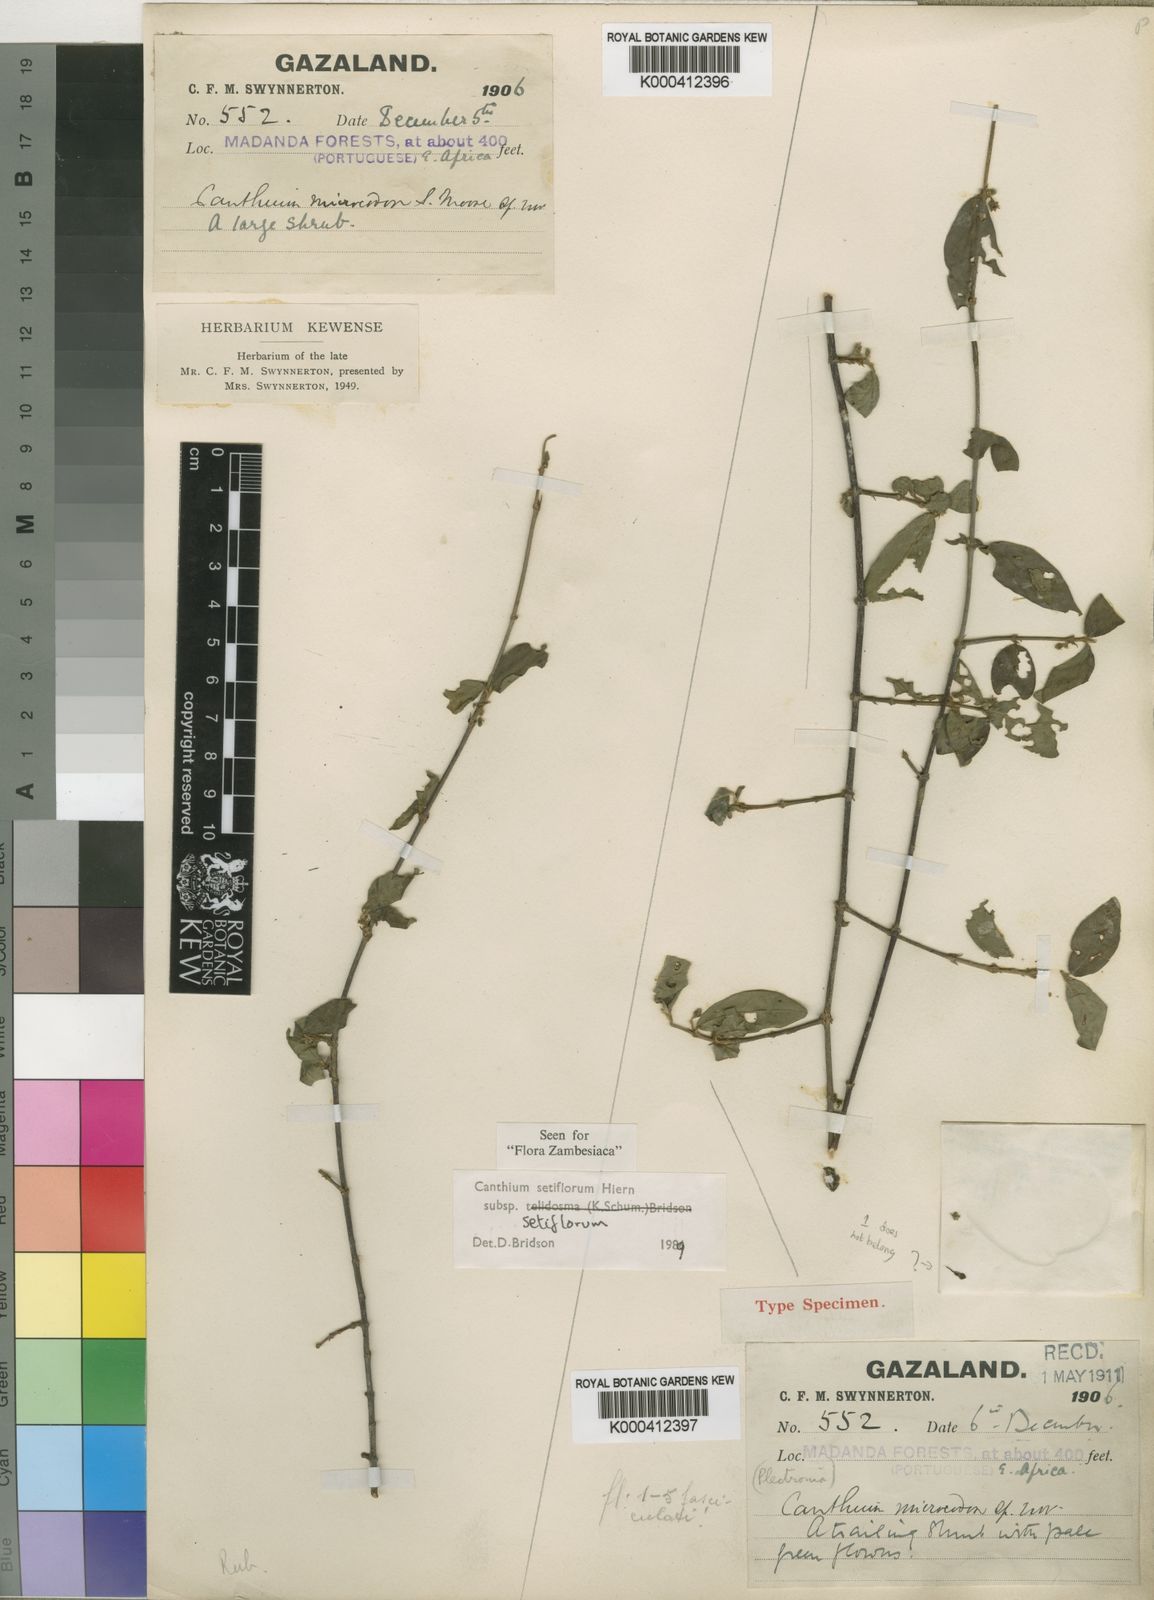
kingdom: Plantae
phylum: Tracheophyta
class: Magnoliopsida
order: Gentianales
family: Rubiaceae
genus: Bullockia
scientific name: Bullockia setiflora
